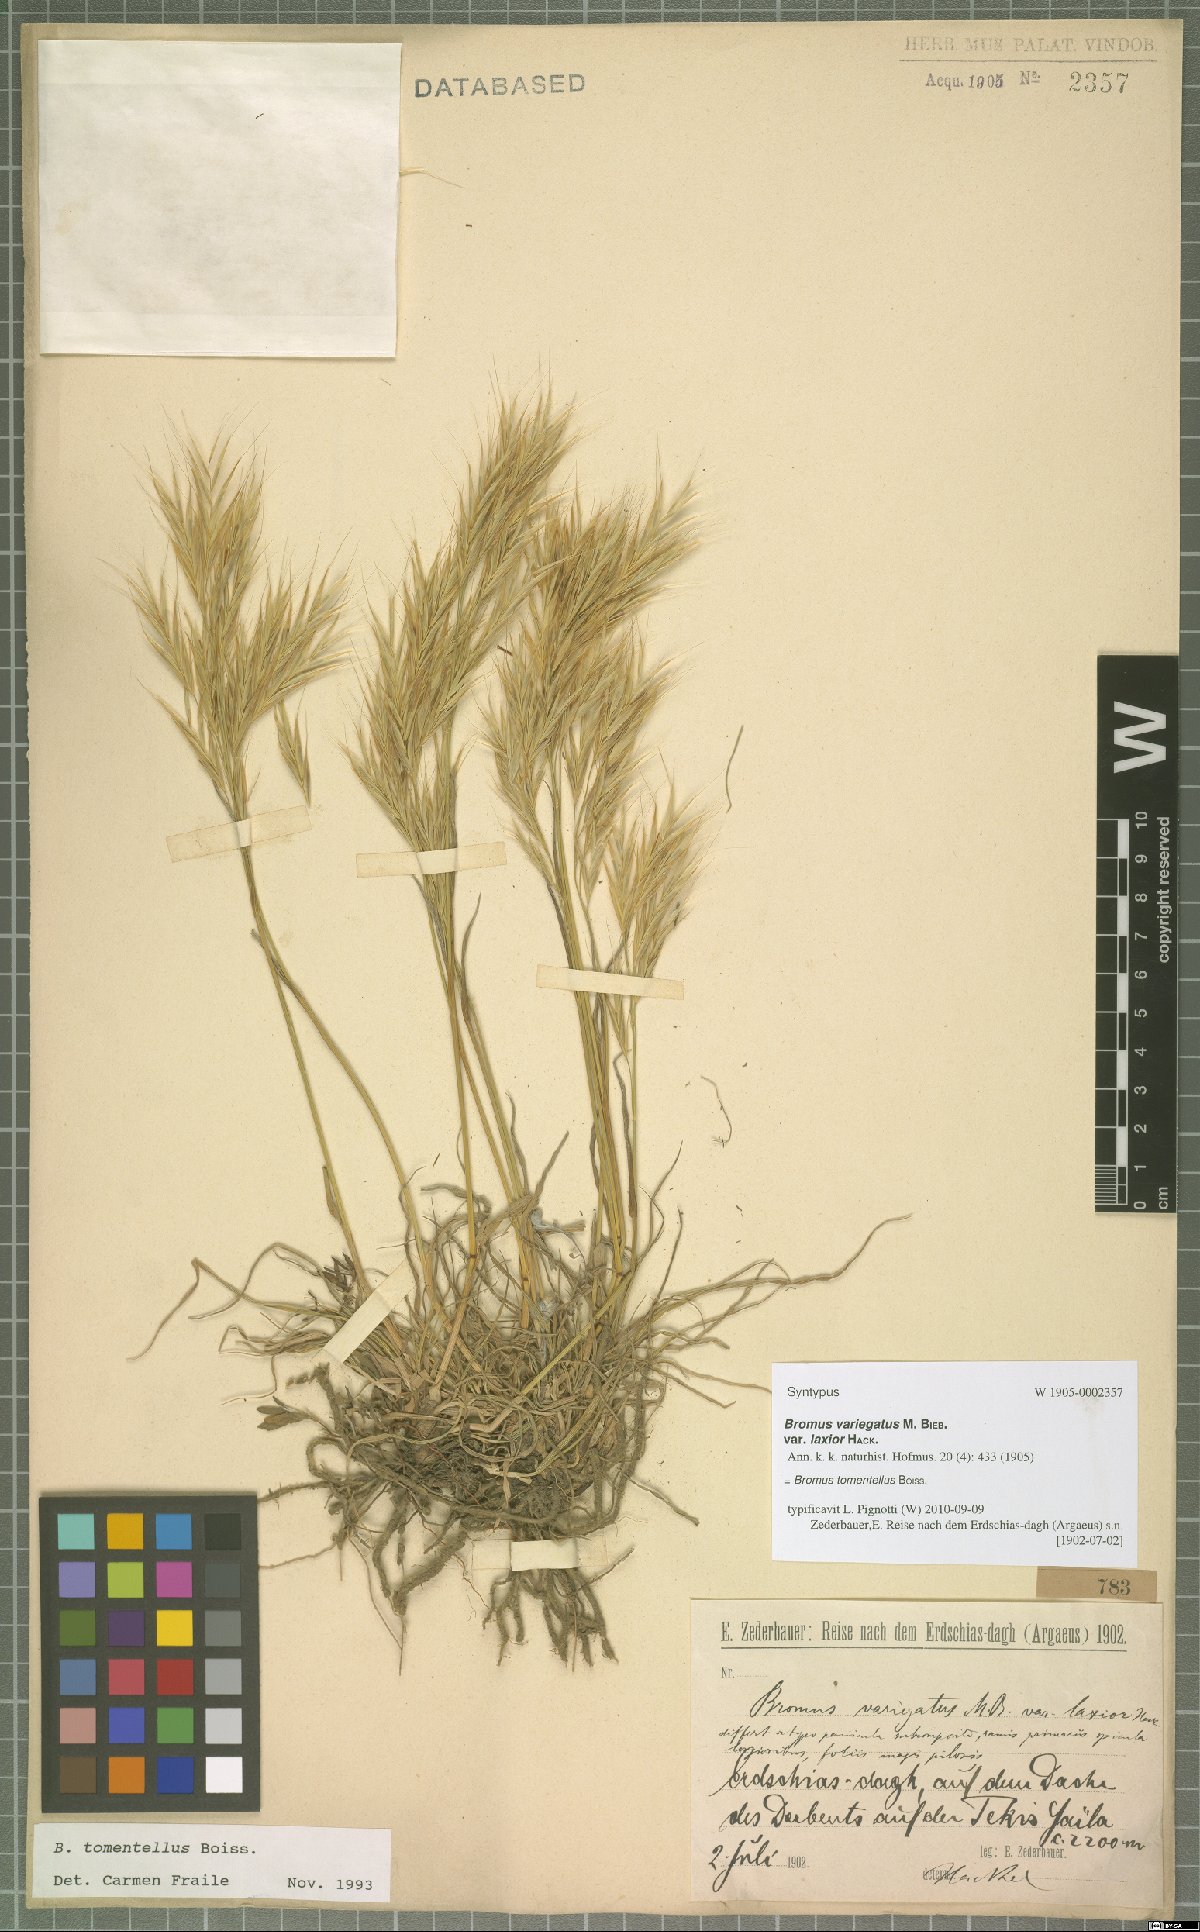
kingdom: Plantae
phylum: Tracheophyta
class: Liliopsida
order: Poales
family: Poaceae
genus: Bromus
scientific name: Bromus tomentellus
